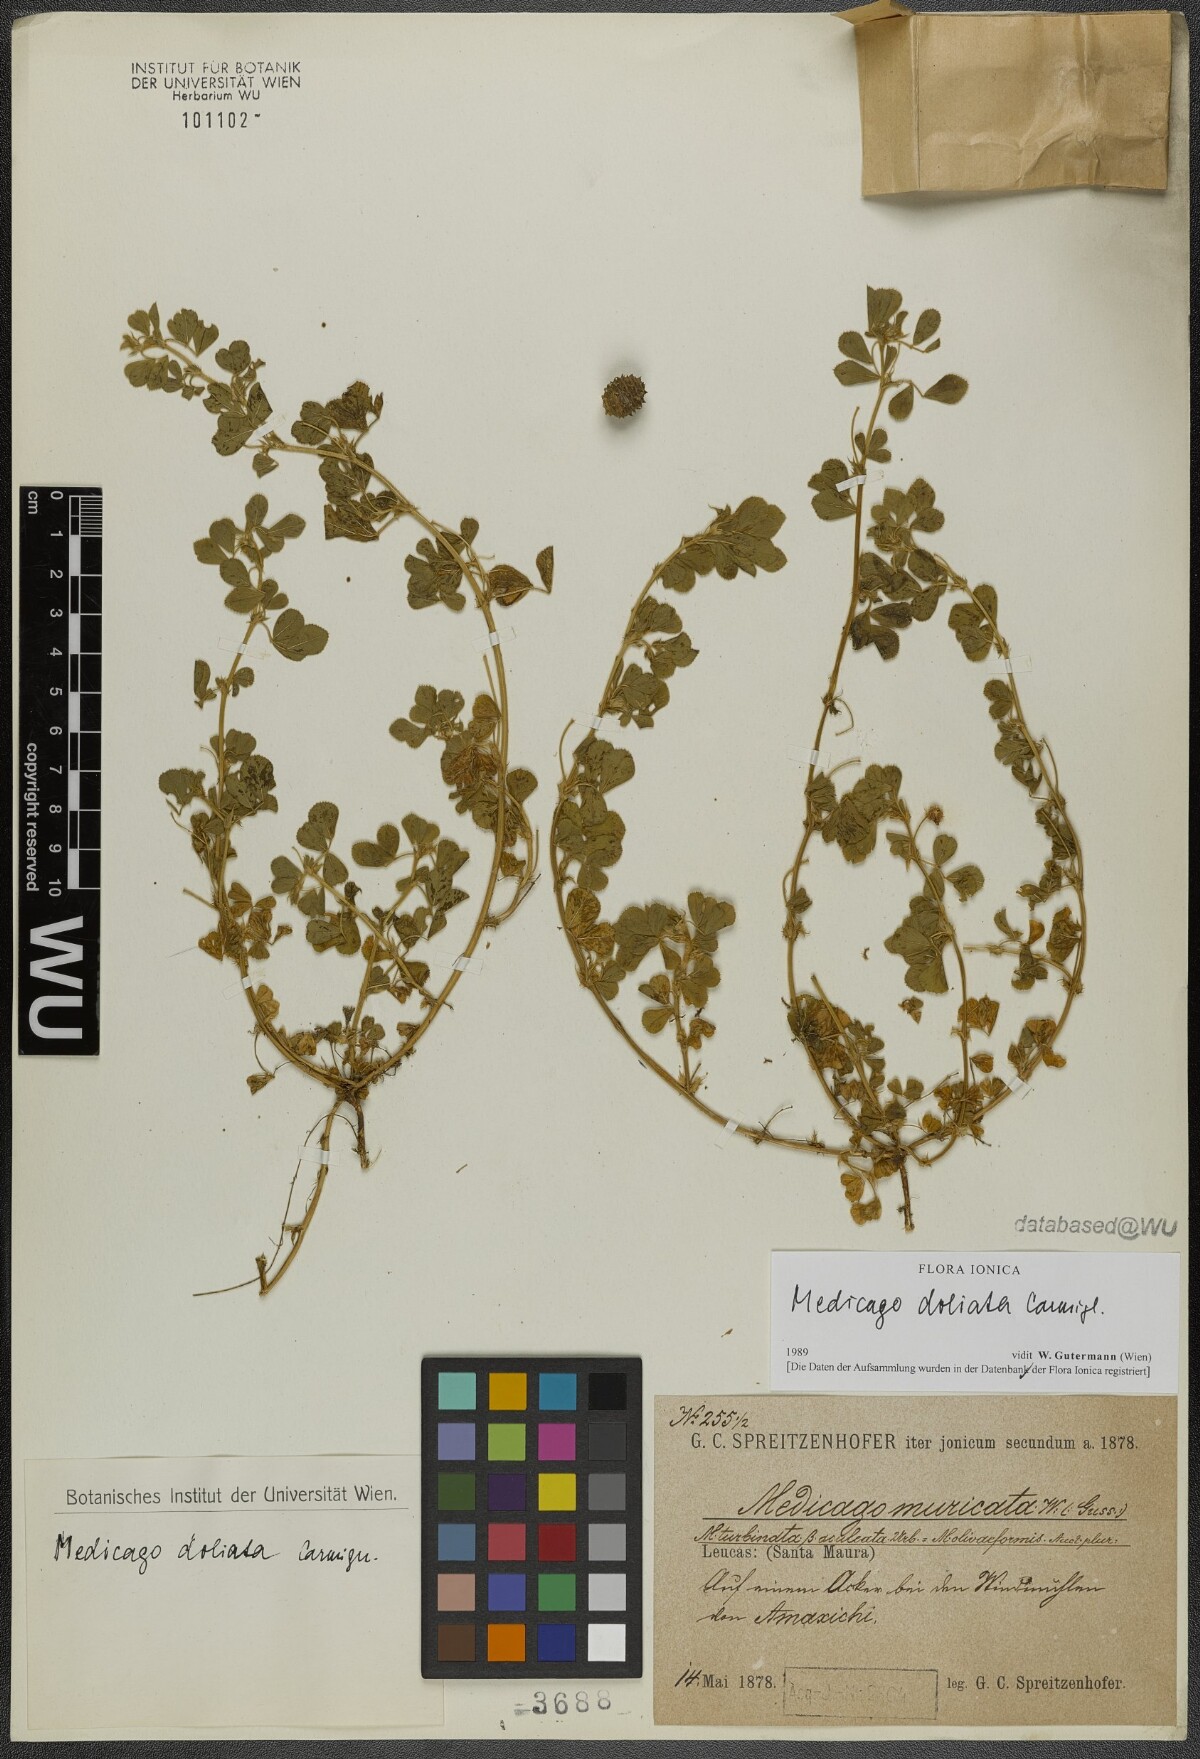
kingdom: Plantae
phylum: Tracheophyta
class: Magnoliopsida
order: Fabales
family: Fabaceae
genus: Medicago
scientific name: Medicago doliata
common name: Keg medic
